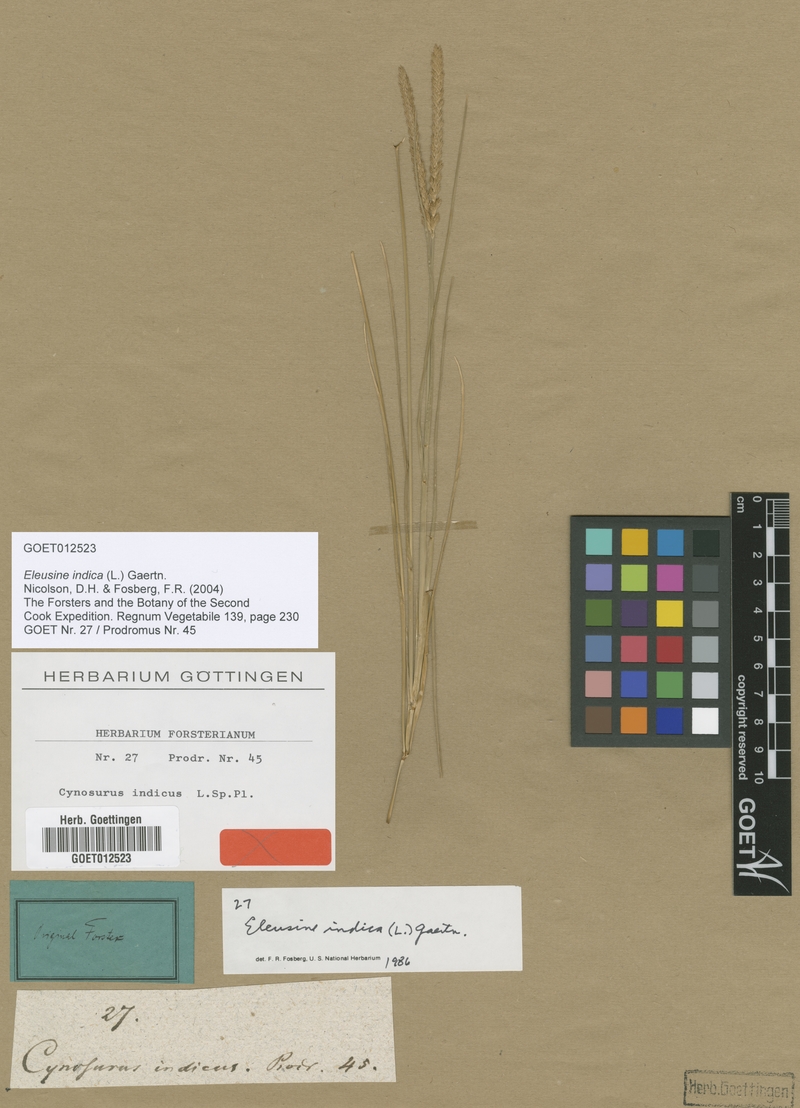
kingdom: Plantae
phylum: Tracheophyta
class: Liliopsida
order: Poales
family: Poaceae
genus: Eleusine
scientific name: Eleusine indica
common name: Yard-grass
